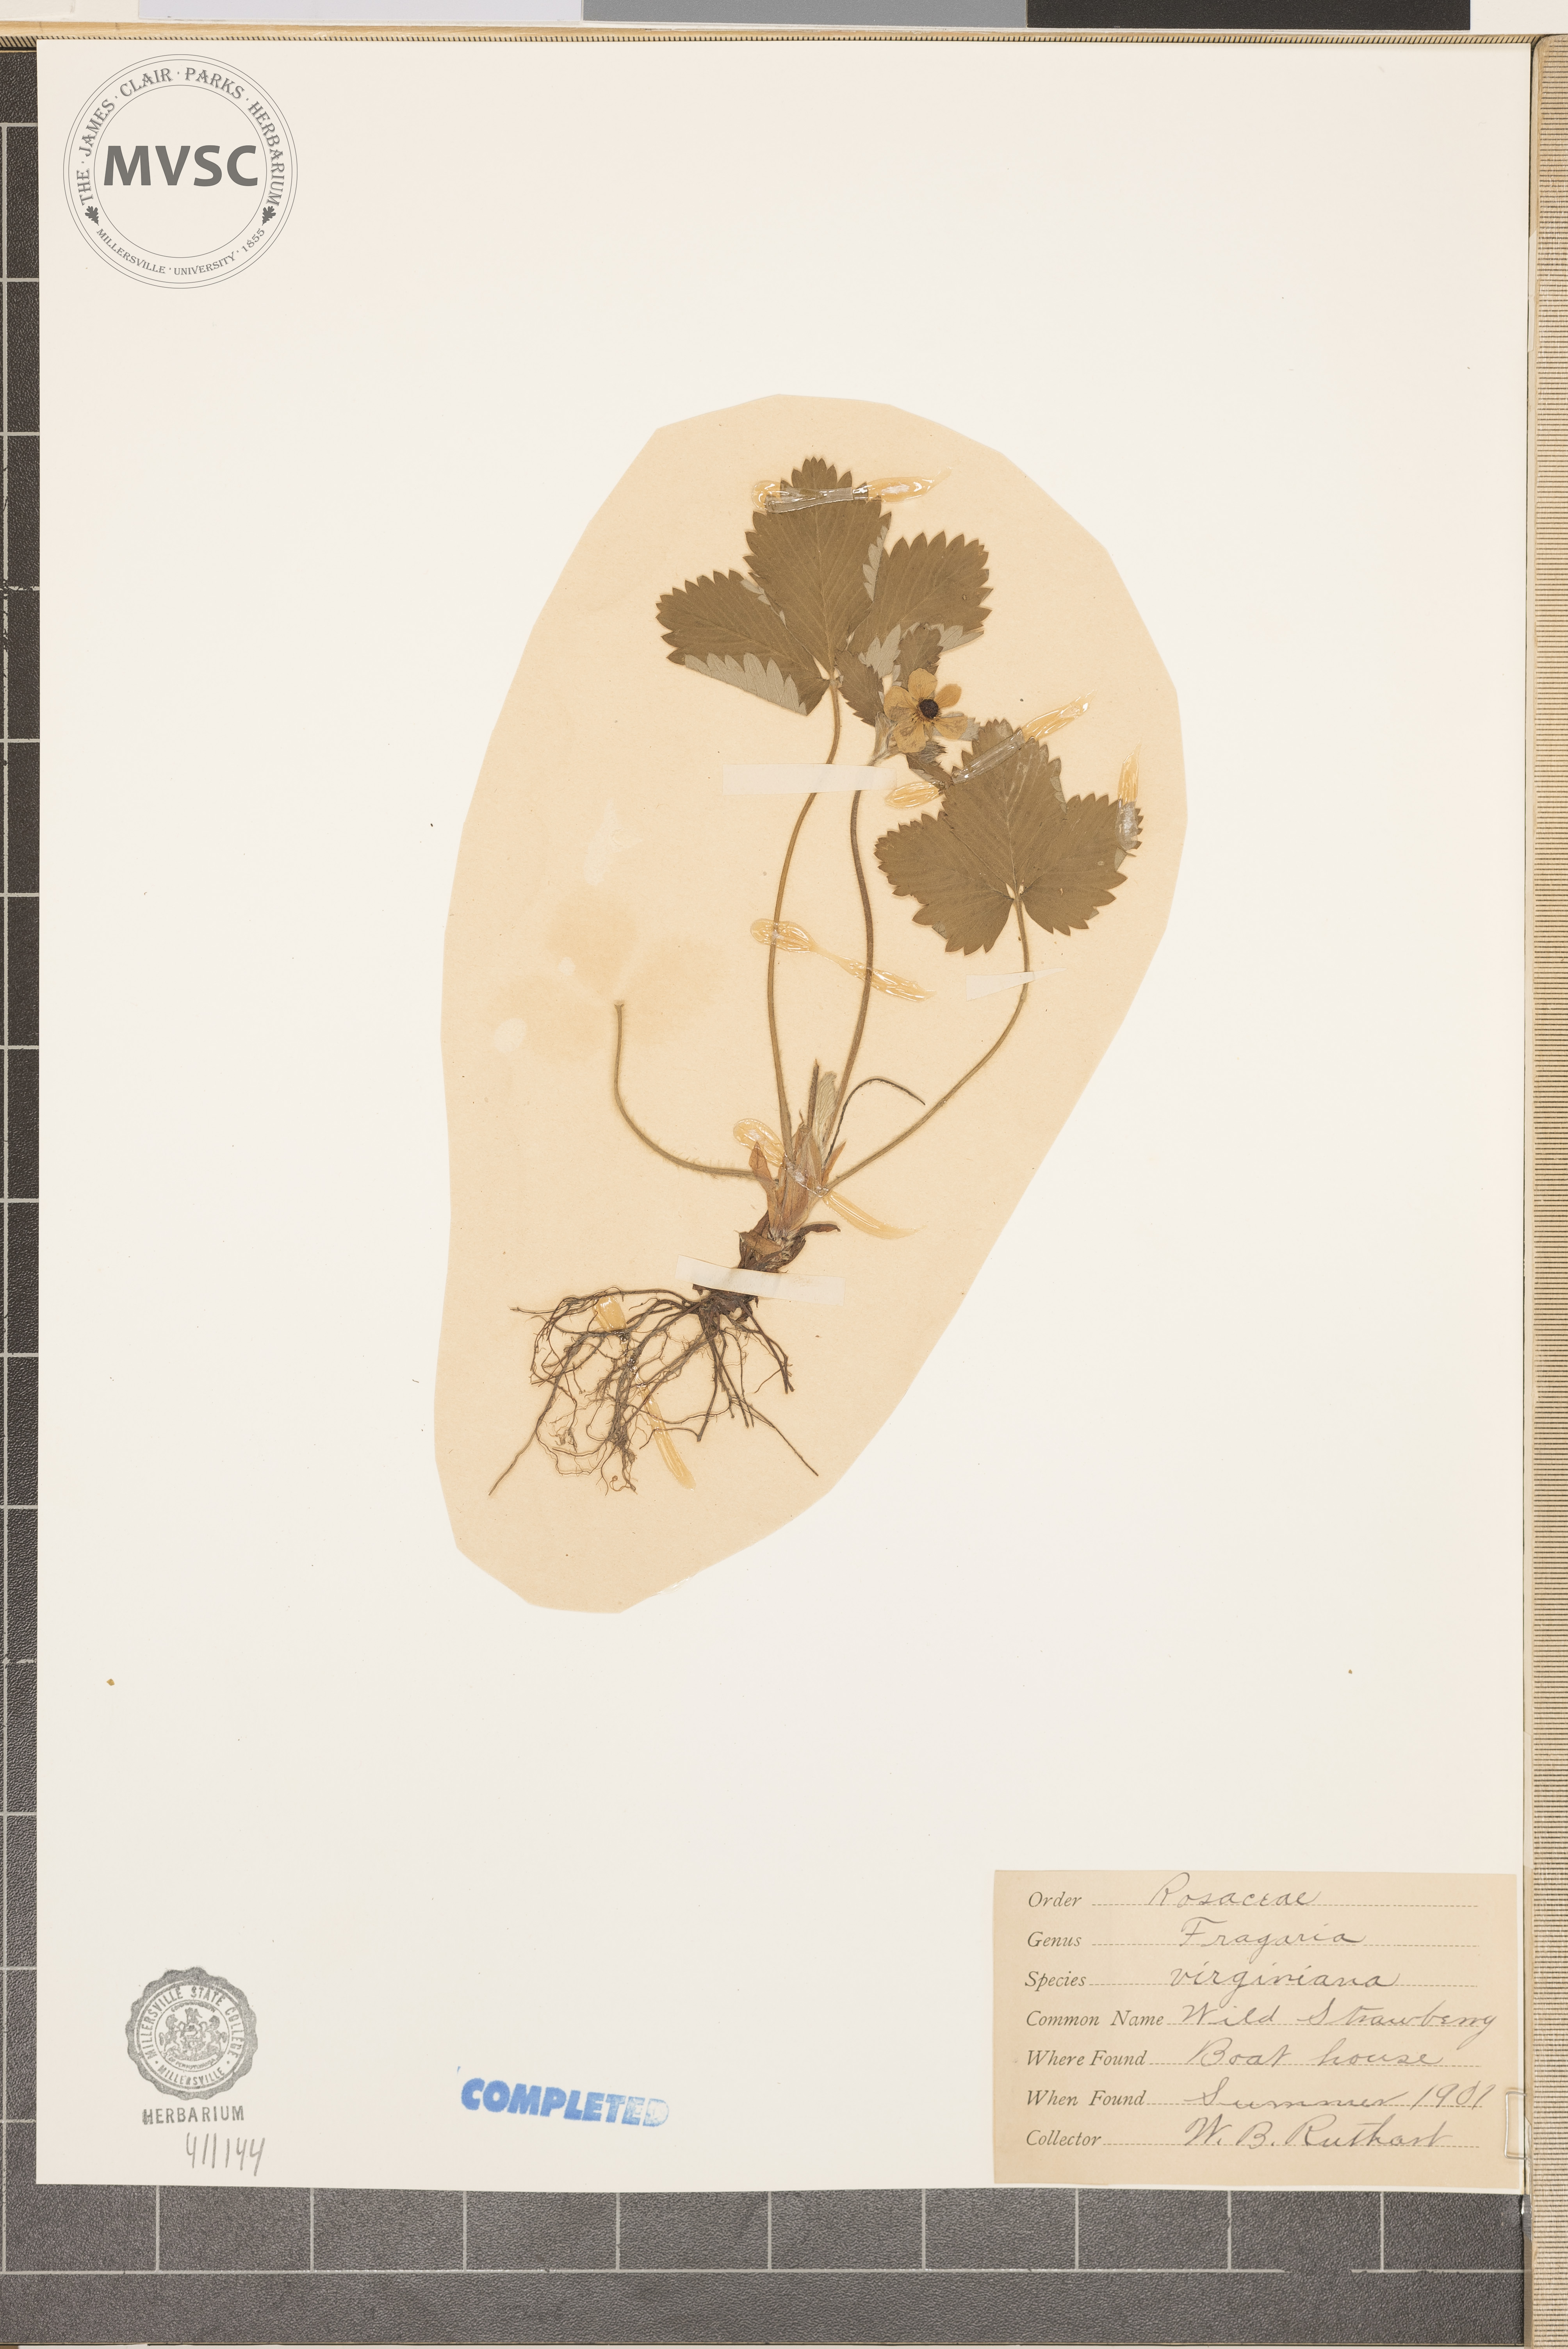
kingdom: Plantae
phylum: Tracheophyta
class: Magnoliopsida
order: Rosales
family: Rosaceae
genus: Fragaria
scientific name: Fragaria virginiana
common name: Thickleaved wild strawberry
